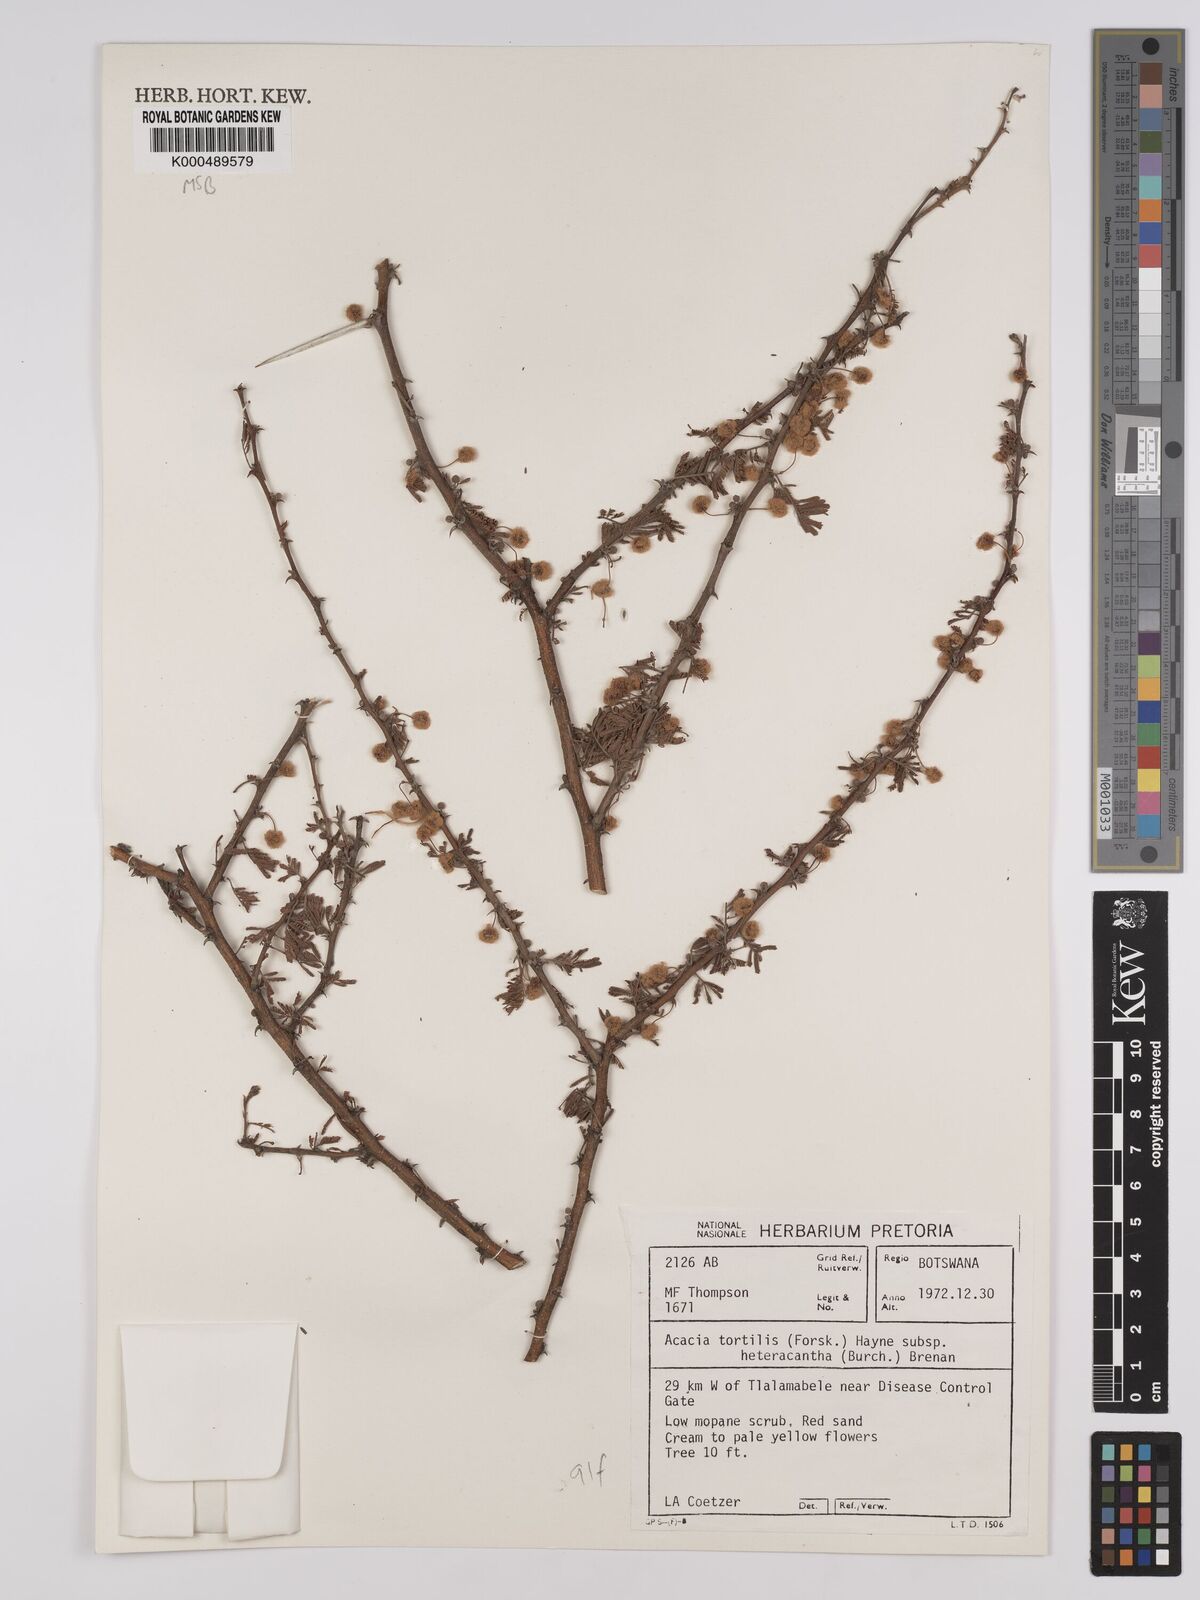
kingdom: Plantae
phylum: Tracheophyta
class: Magnoliopsida
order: Fabales
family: Fabaceae
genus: Vachellia
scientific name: Vachellia tortilis
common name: Umbrella thorn acacia
